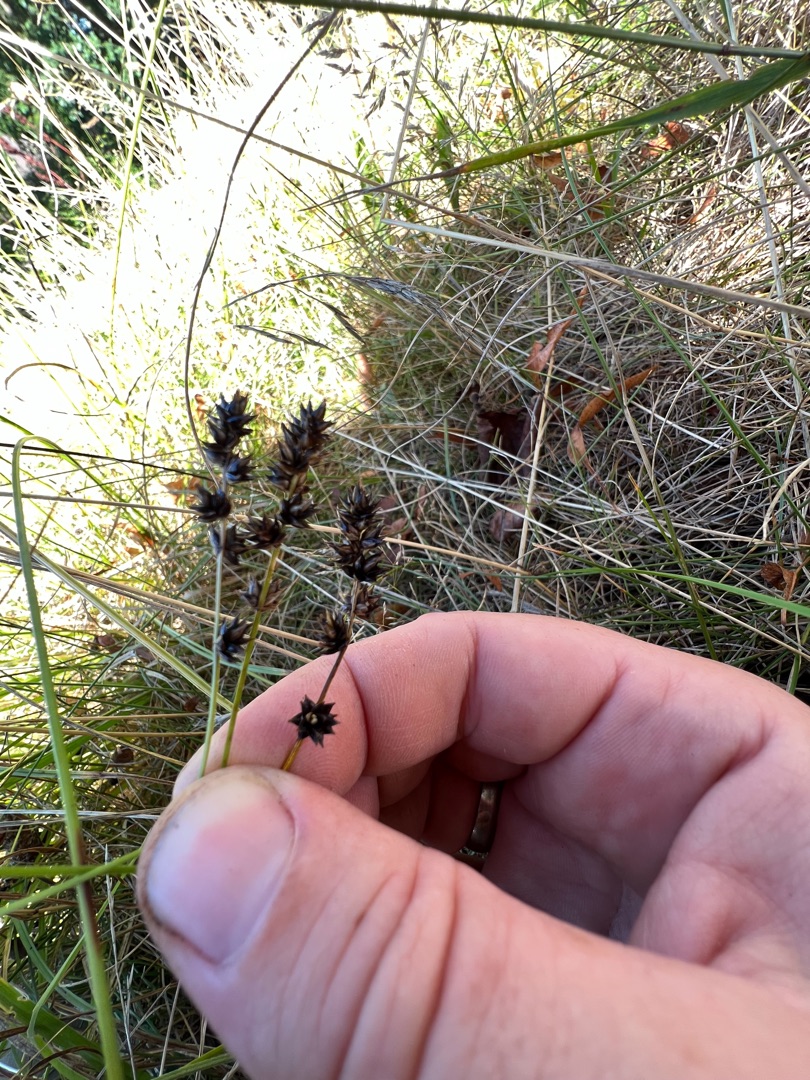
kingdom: Plantae
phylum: Tracheophyta
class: Liliopsida
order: Poales
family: Cyperaceae
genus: Carex
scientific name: Carex leersii
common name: Mellembrudt star (underart)
